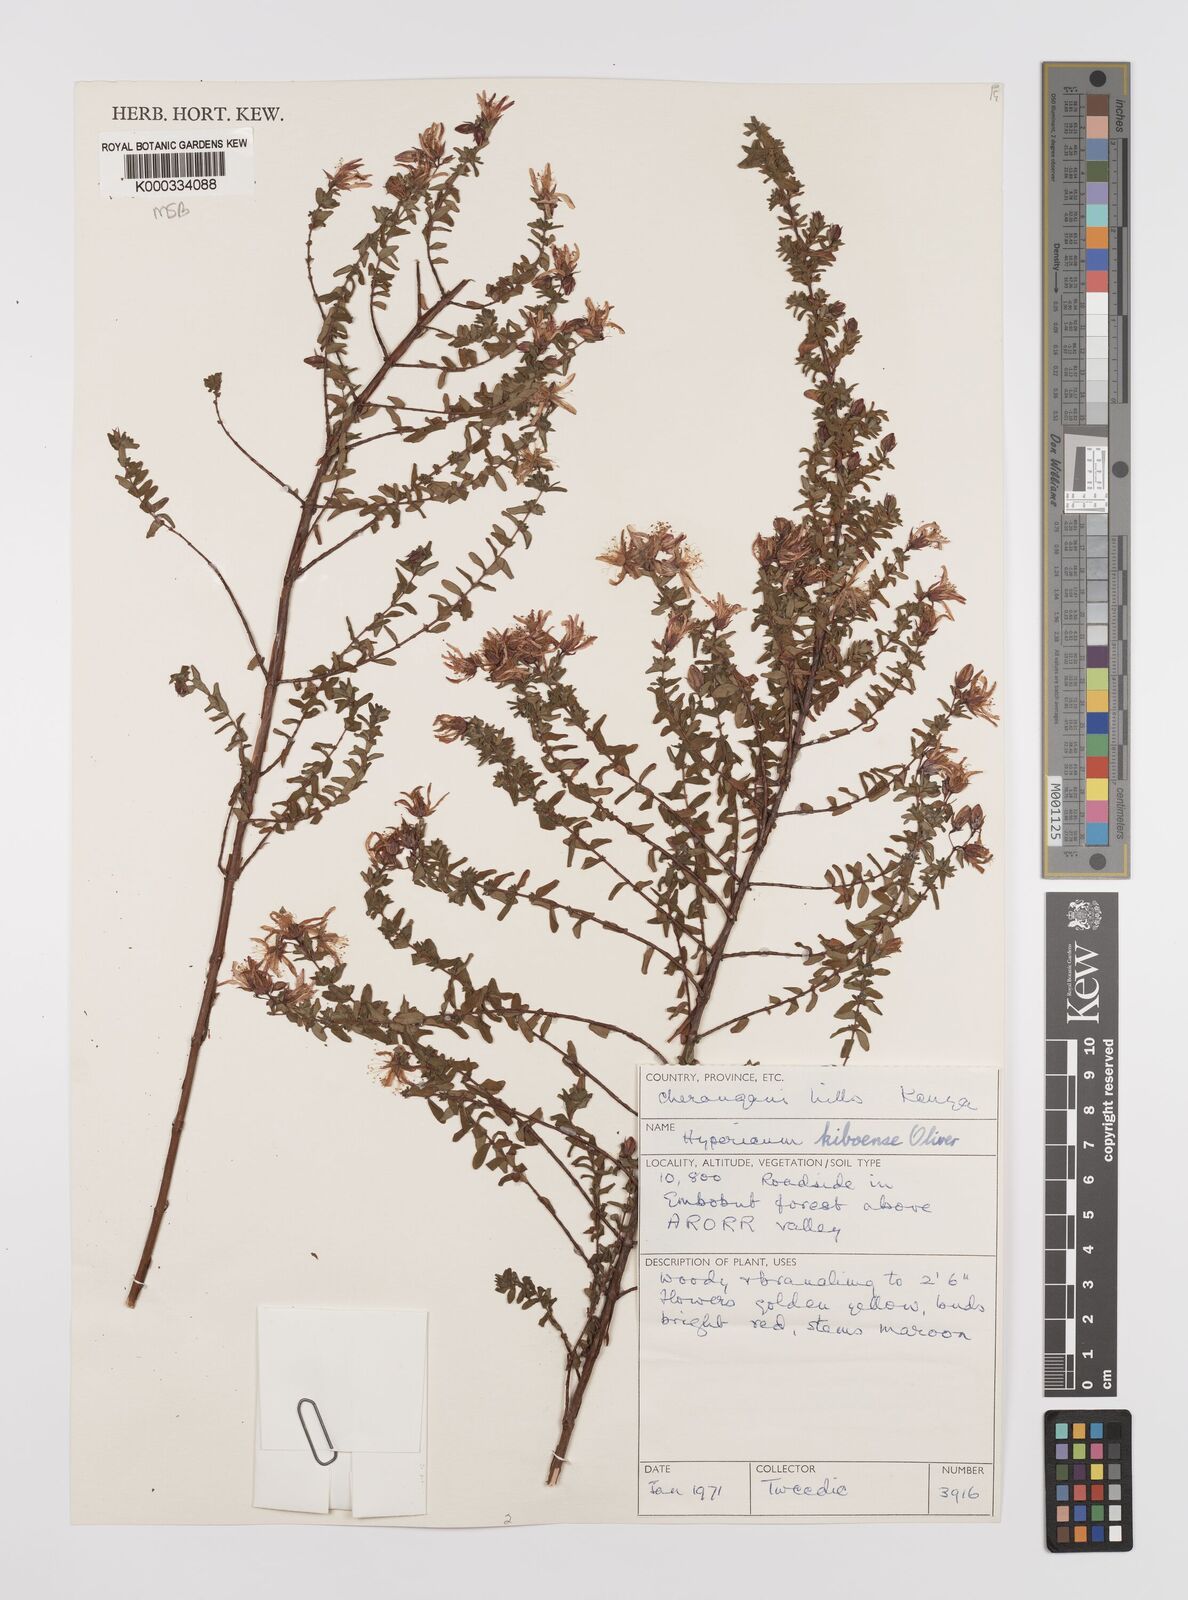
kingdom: Plantae
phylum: Tracheophyta
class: Magnoliopsida
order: Malpighiales
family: Hypericaceae
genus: Hypericum
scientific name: Hypericum kiboense
